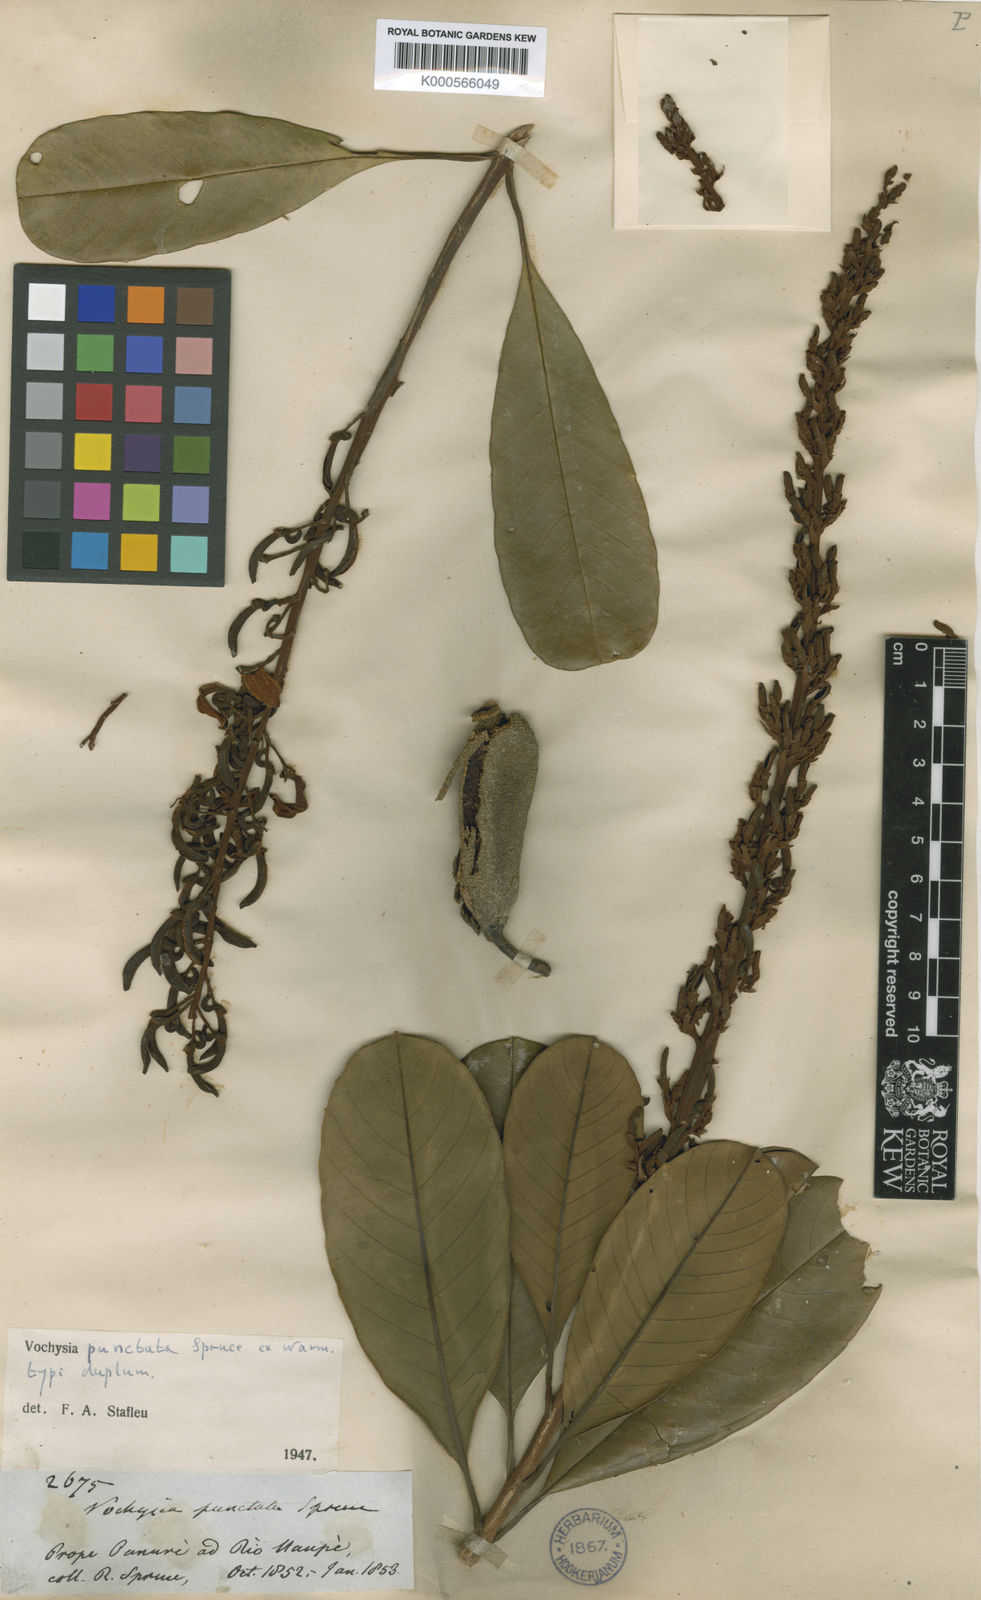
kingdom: Plantae
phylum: Tracheophyta
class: Magnoliopsida
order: Myrtales
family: Vochysiaceae
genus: Vochysia
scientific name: Vochysia punctata
